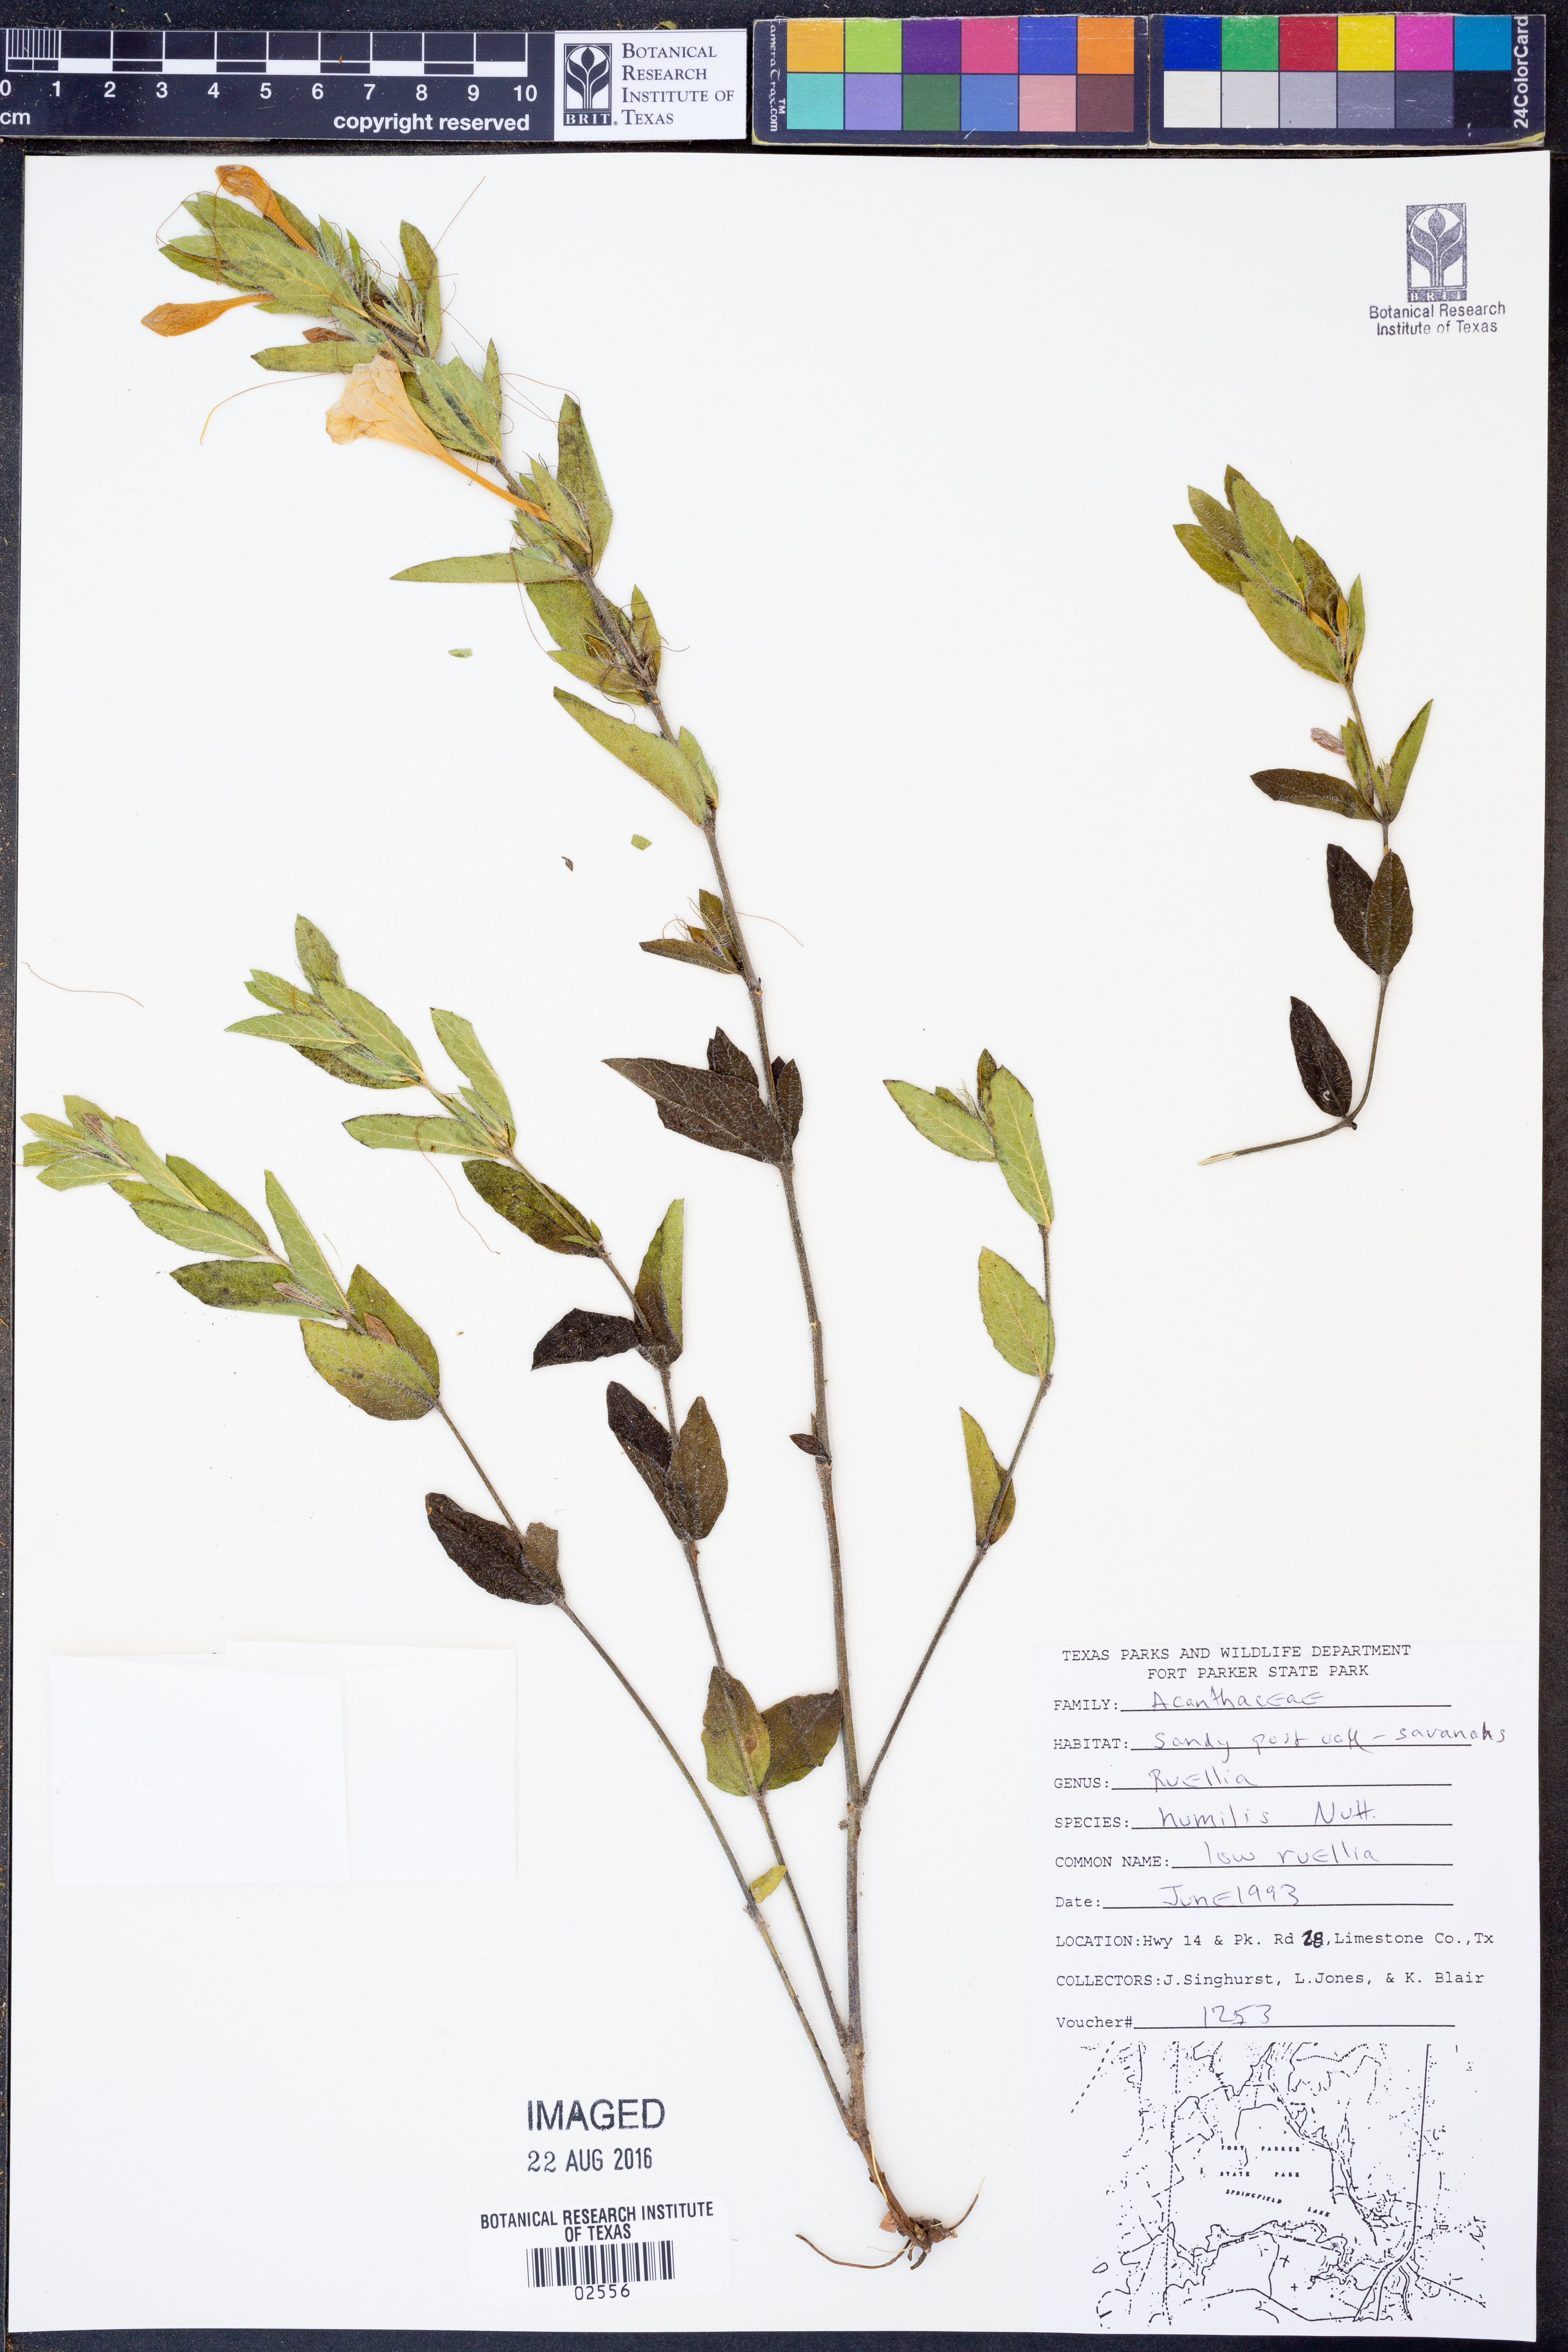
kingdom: Plantae
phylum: Tracheophyta
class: Magnoliopsida
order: Lamiales
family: Acanthaceae
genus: Ruellia
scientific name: Ruellia humilis
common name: Fringe-leaf ruellia
